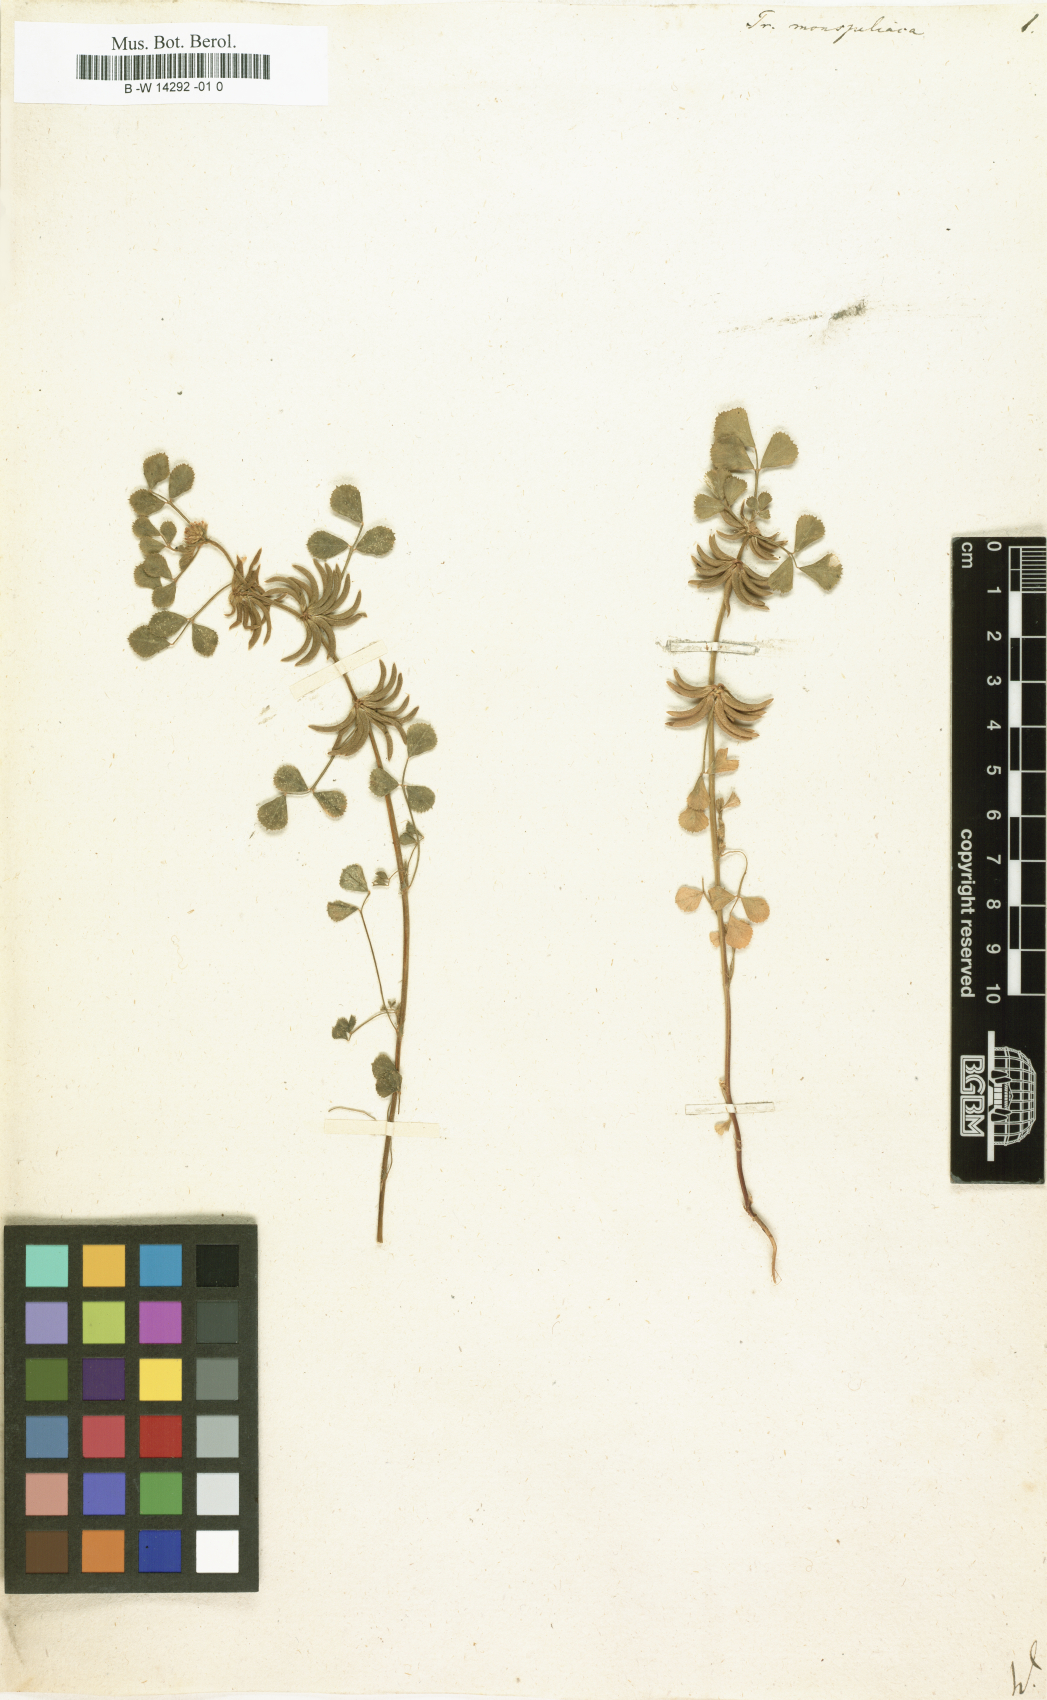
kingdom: Plantae
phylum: Tracheophyta
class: Magnoliopsida
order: Fabales
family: Fabaceae
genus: Medicago
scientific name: Medicago monspeliaca
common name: Hairy medick
